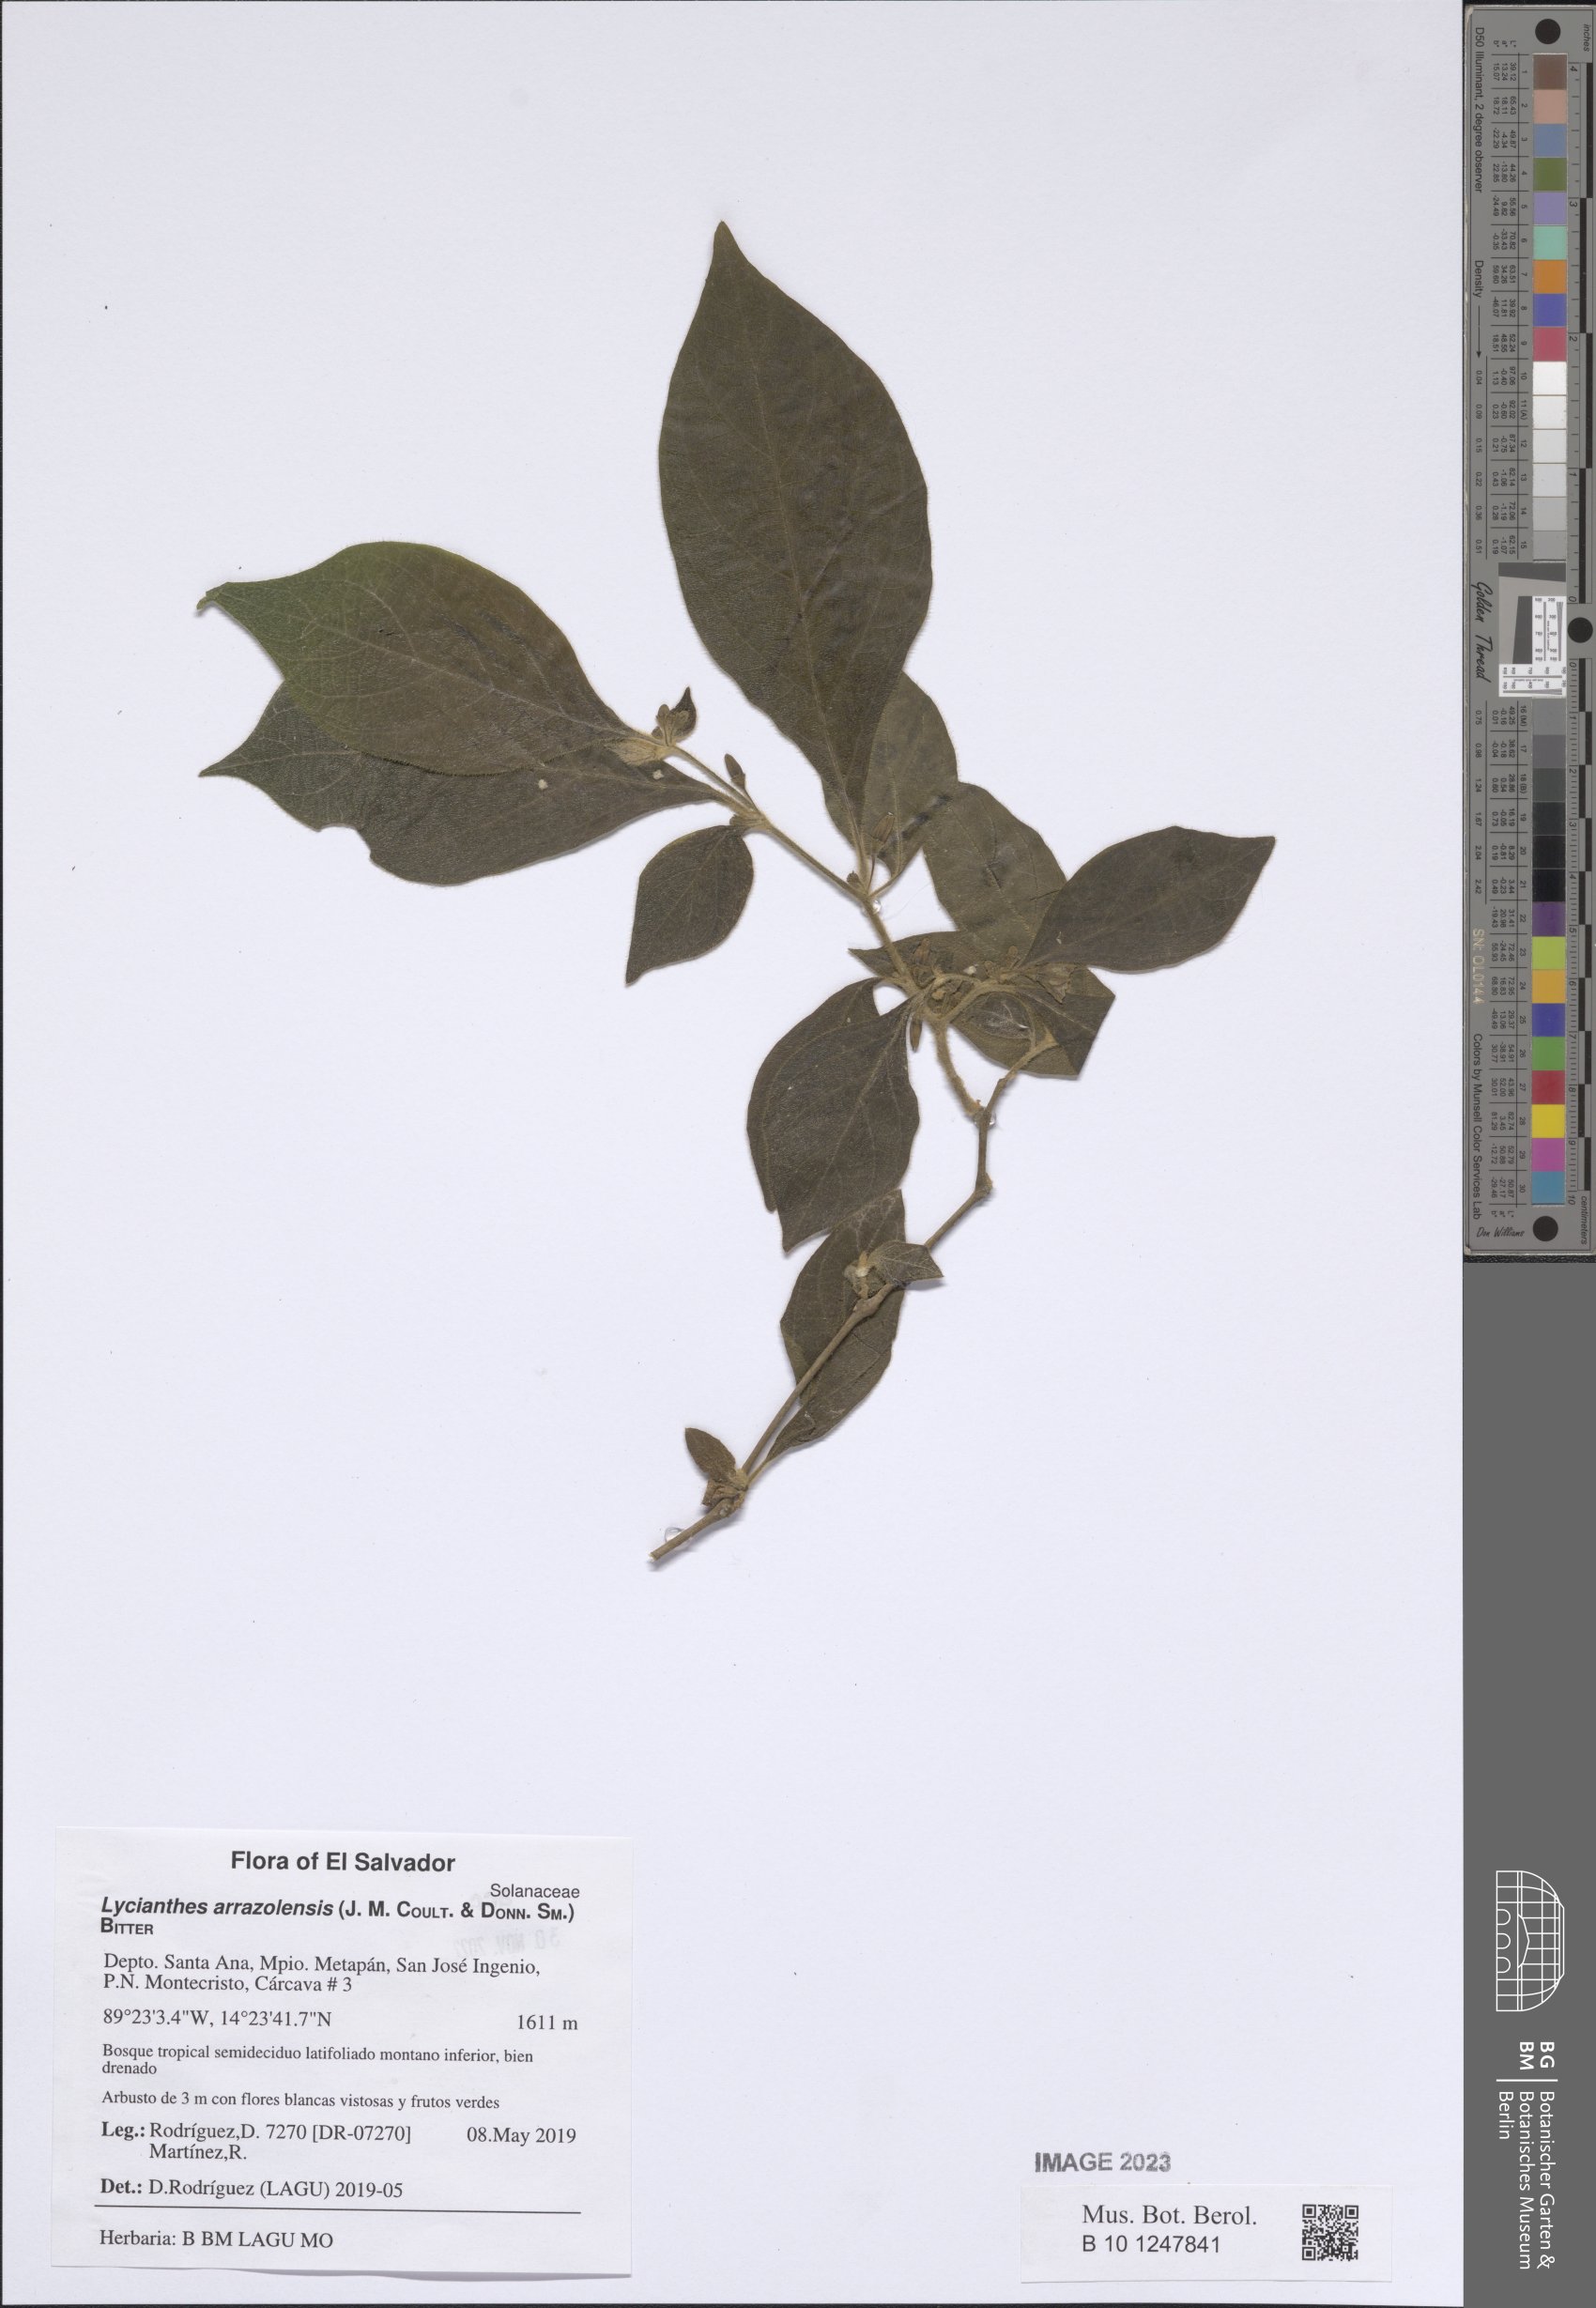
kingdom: Plantae
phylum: Tracheophyta
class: Magnoliopsida
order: Solanales
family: Solanaceae
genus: Lycianthes
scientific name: Lycianthes arrazolensis
